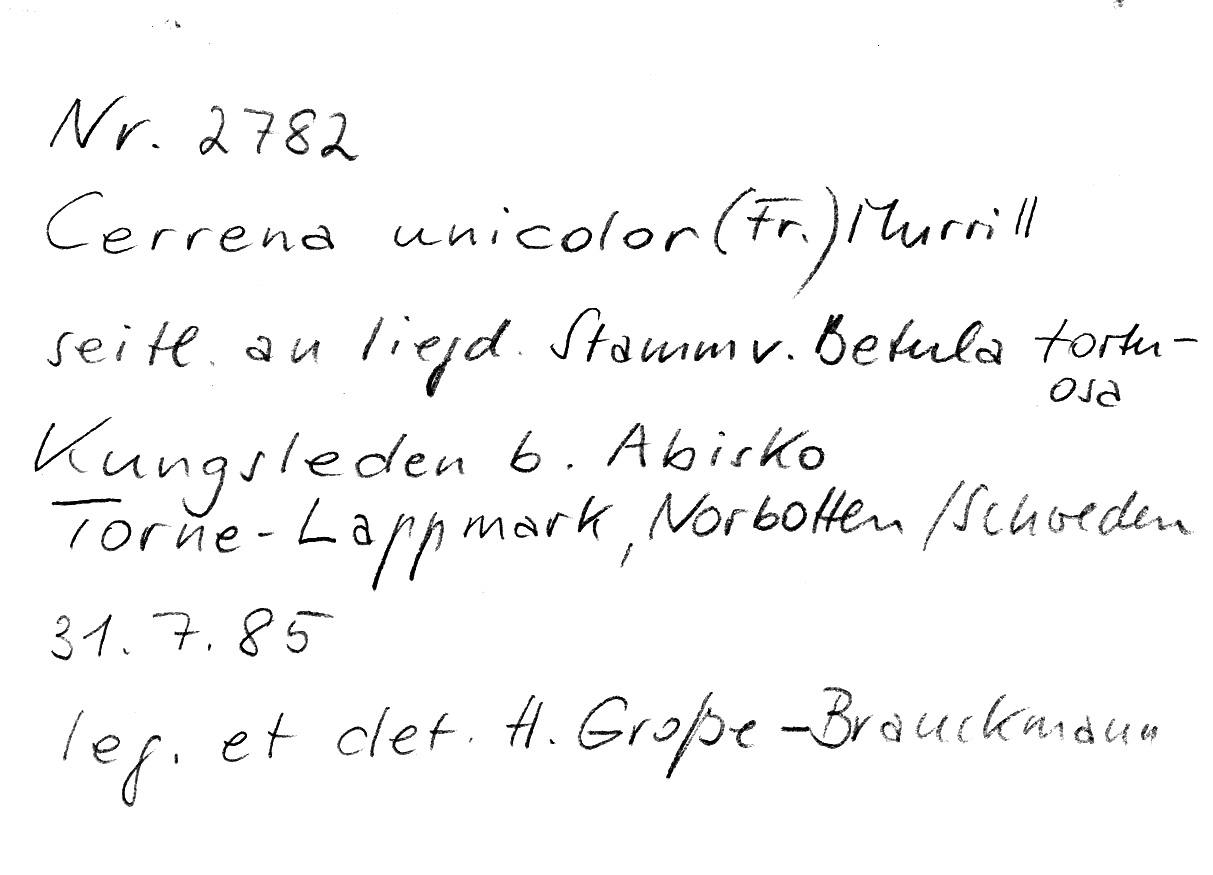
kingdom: Plantae
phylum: Tracheophyta
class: Magnoliopsida
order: Fagales
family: Betulaceae
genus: Betula
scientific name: Betula pubescens
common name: Downy birch
